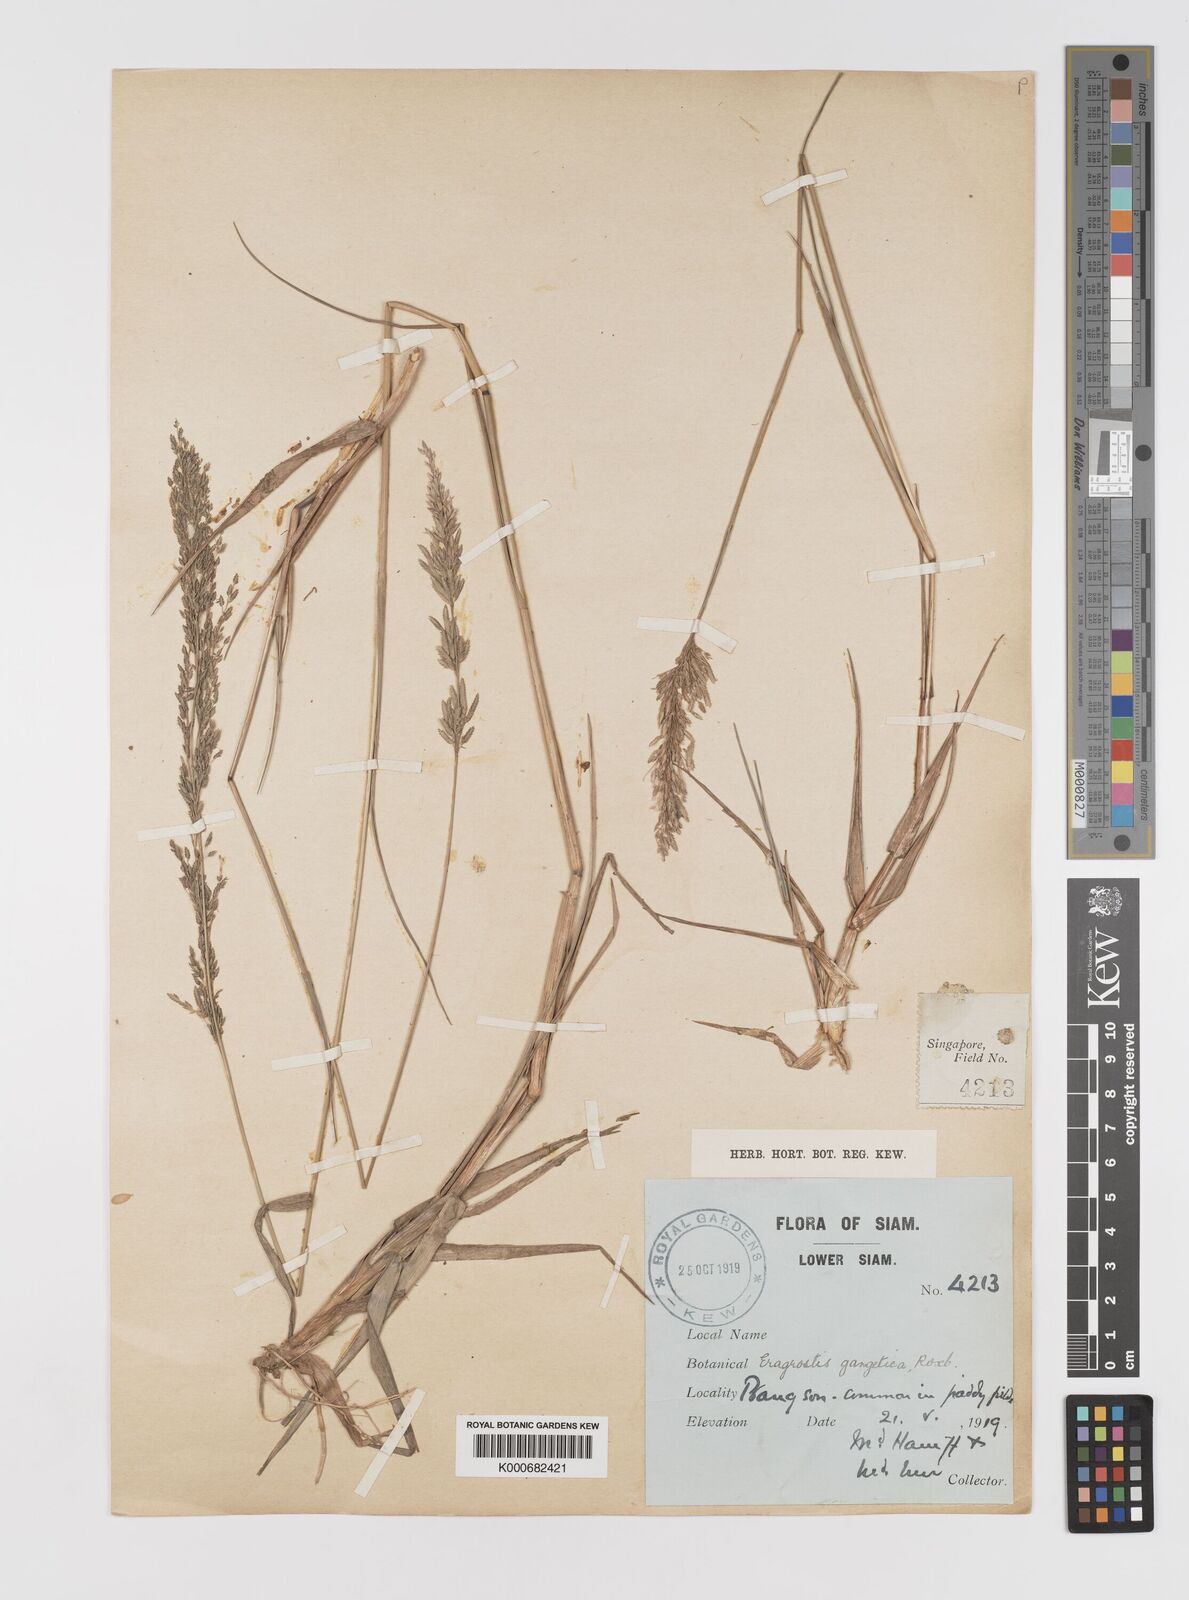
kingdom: Plantae
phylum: Tracheophyta
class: Liliopsida
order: Poales
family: Poaceae
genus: Eragrostis
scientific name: Eragrostis
